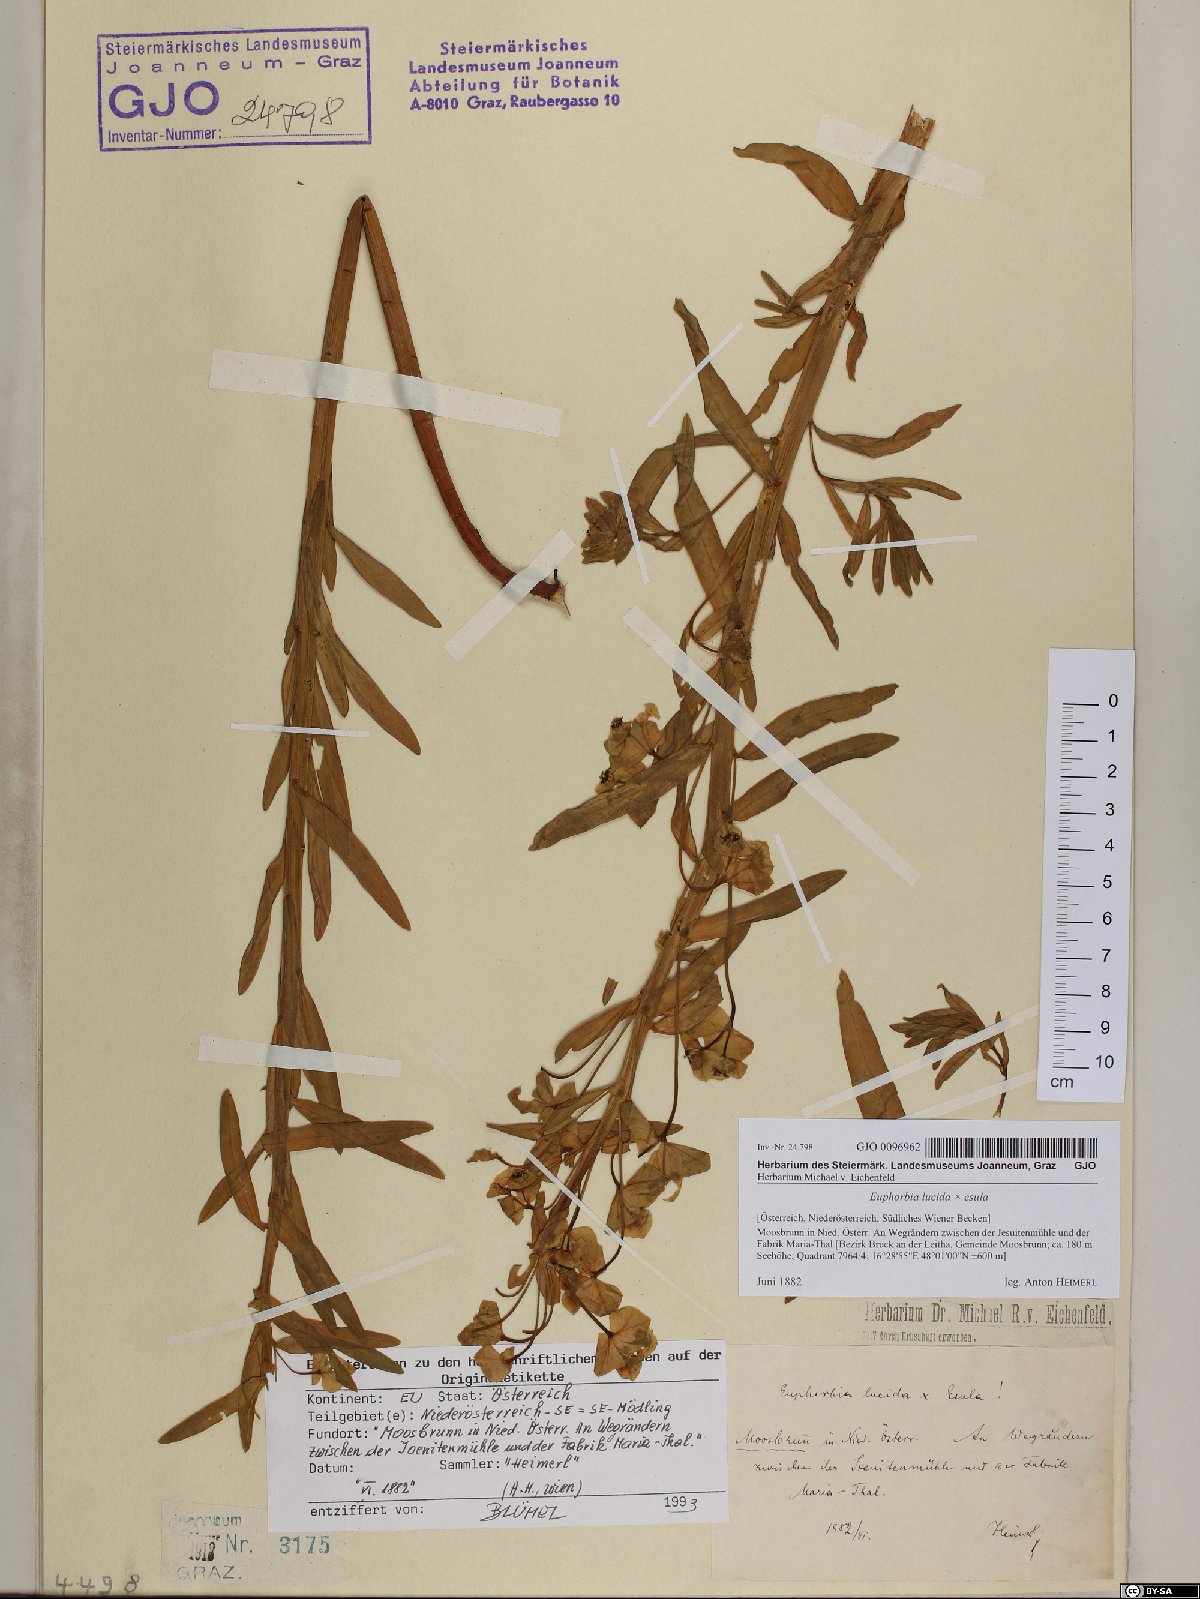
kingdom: Plantae
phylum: Tracheophyta
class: Magnoliopsida
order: Malpighiales
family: Euphorbiaceae
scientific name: Euphorbiaceae
